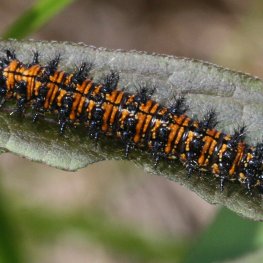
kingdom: Animalia
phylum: Arthropoda
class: Insecta
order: Lepidoptera
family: Nymphalidae
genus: Chlosyne
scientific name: Chlosyne harrisii
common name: Harris's Checkerspot
